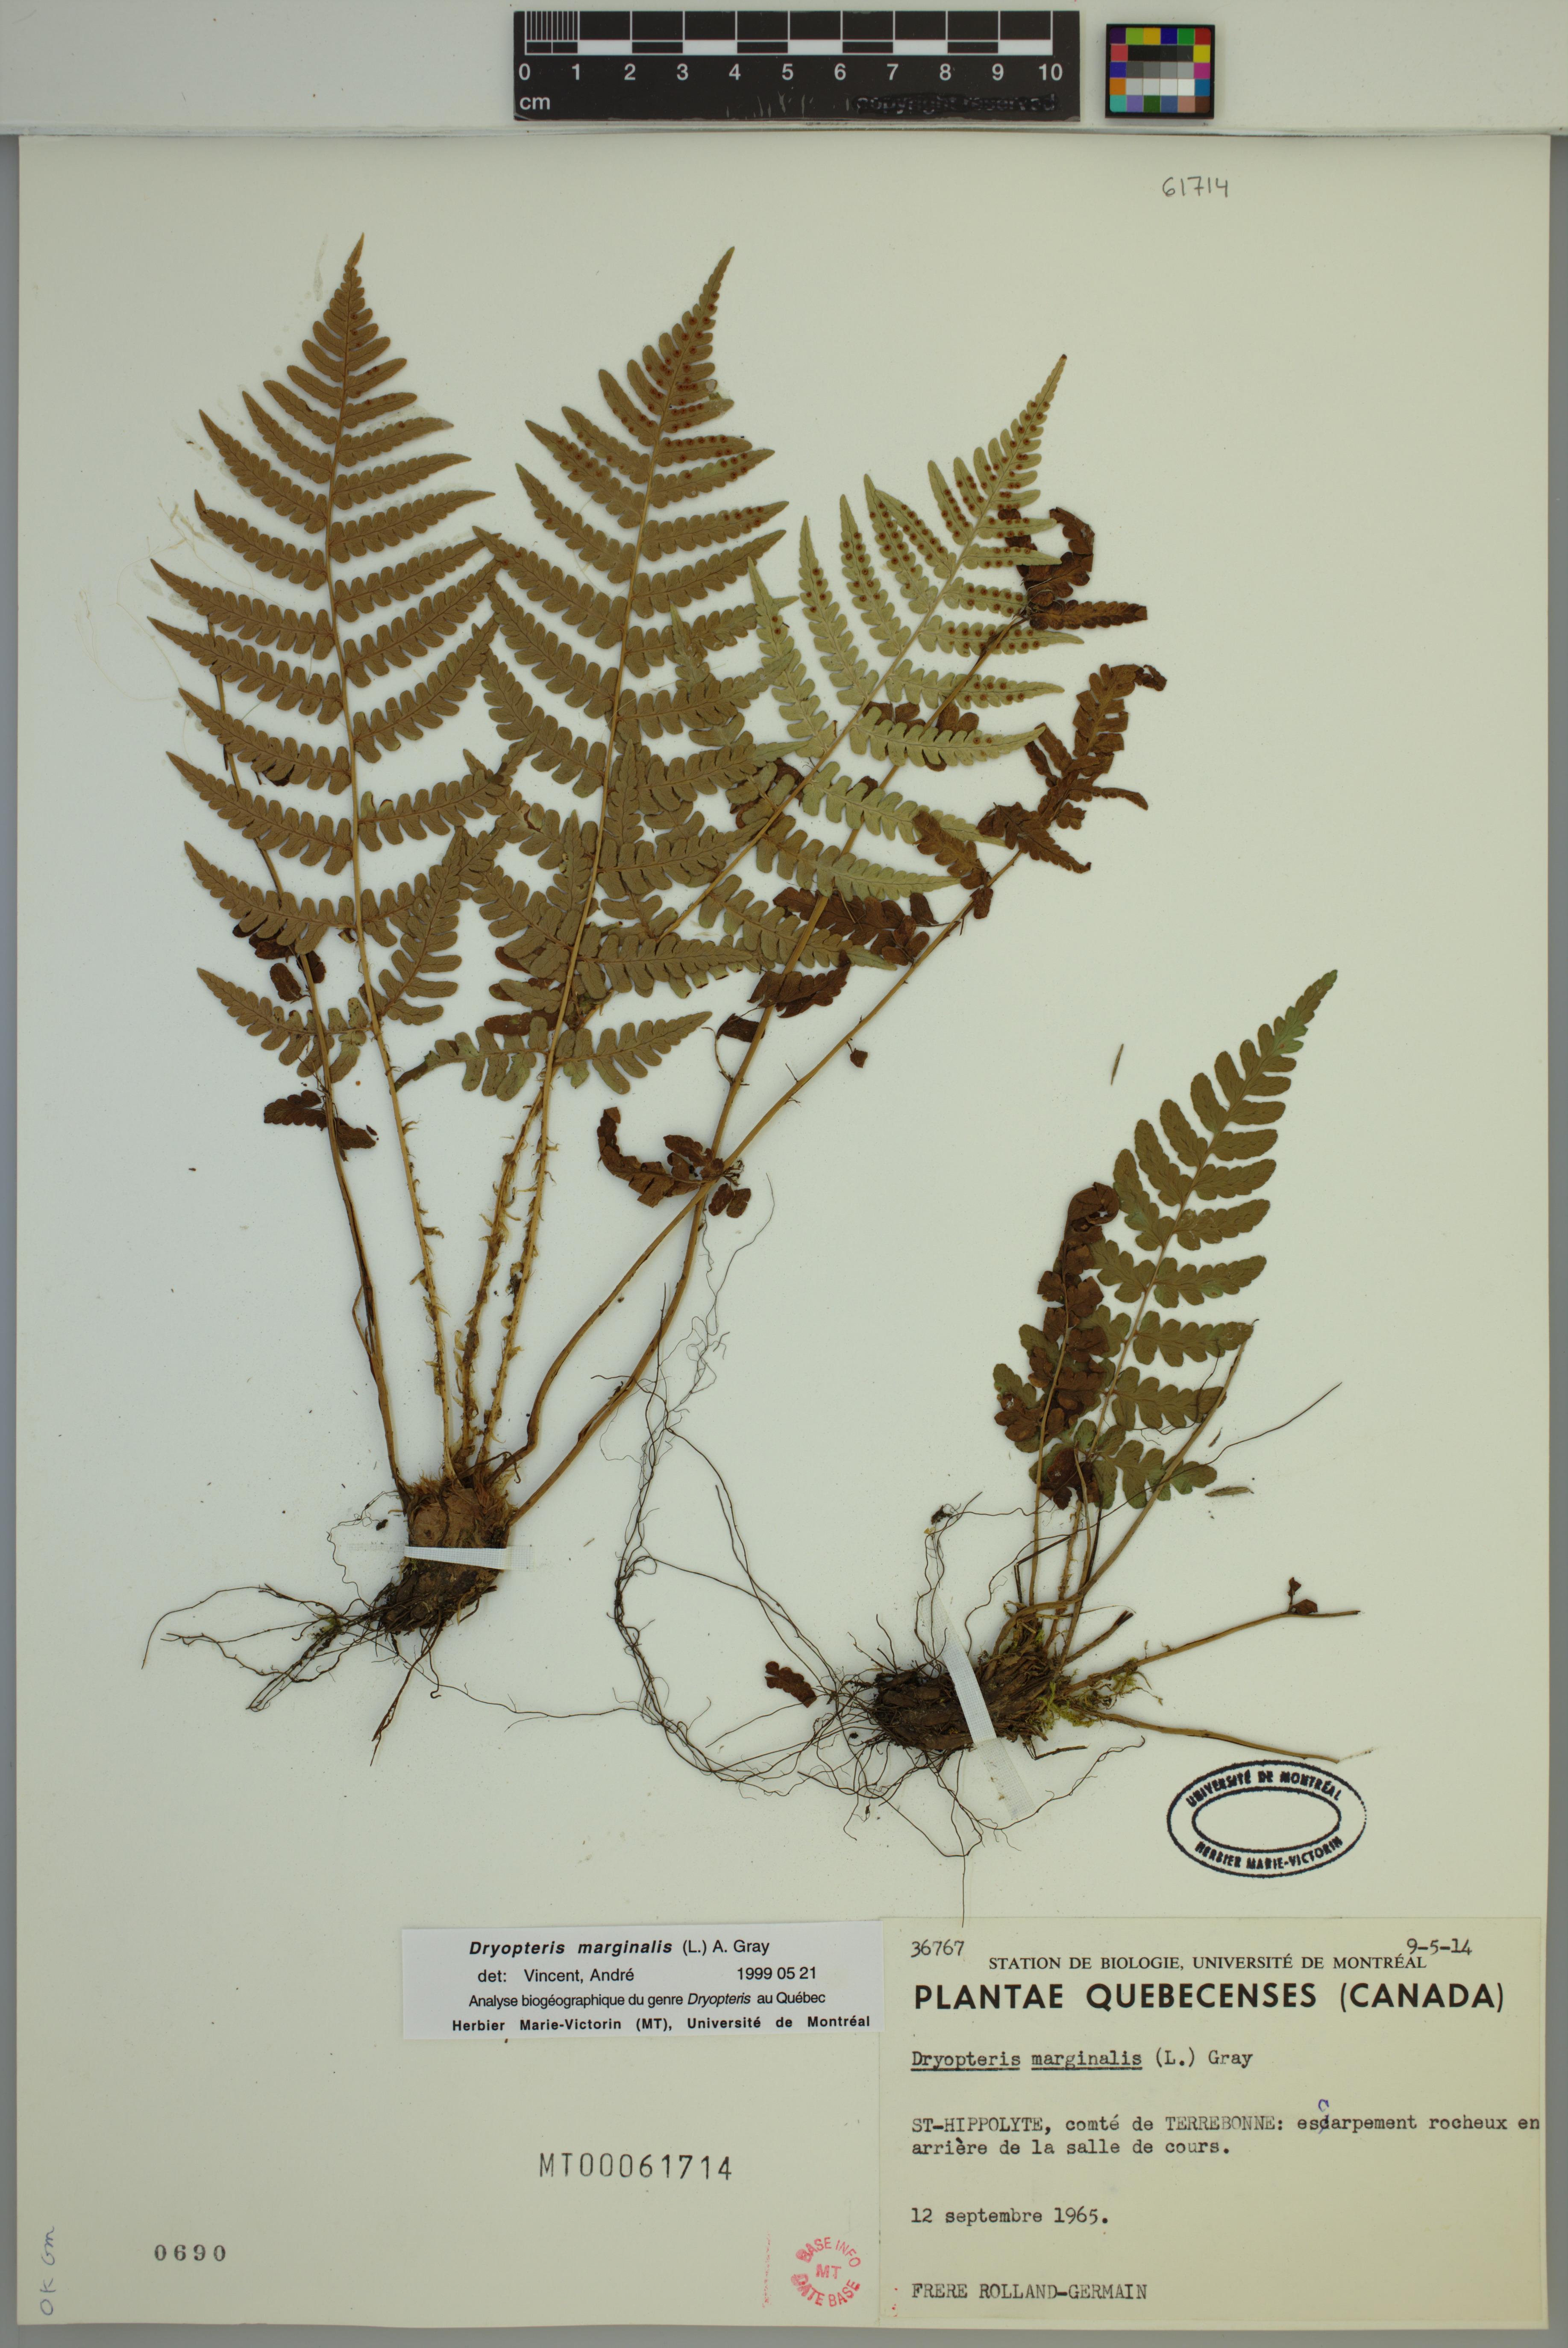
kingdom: Plantae
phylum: Tracheophyta
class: Polypodiopsida
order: Polypodiales
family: Dryopteridaceae
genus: Dryopteris
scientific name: Dryopteris marginalis
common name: Marginal wood fern
